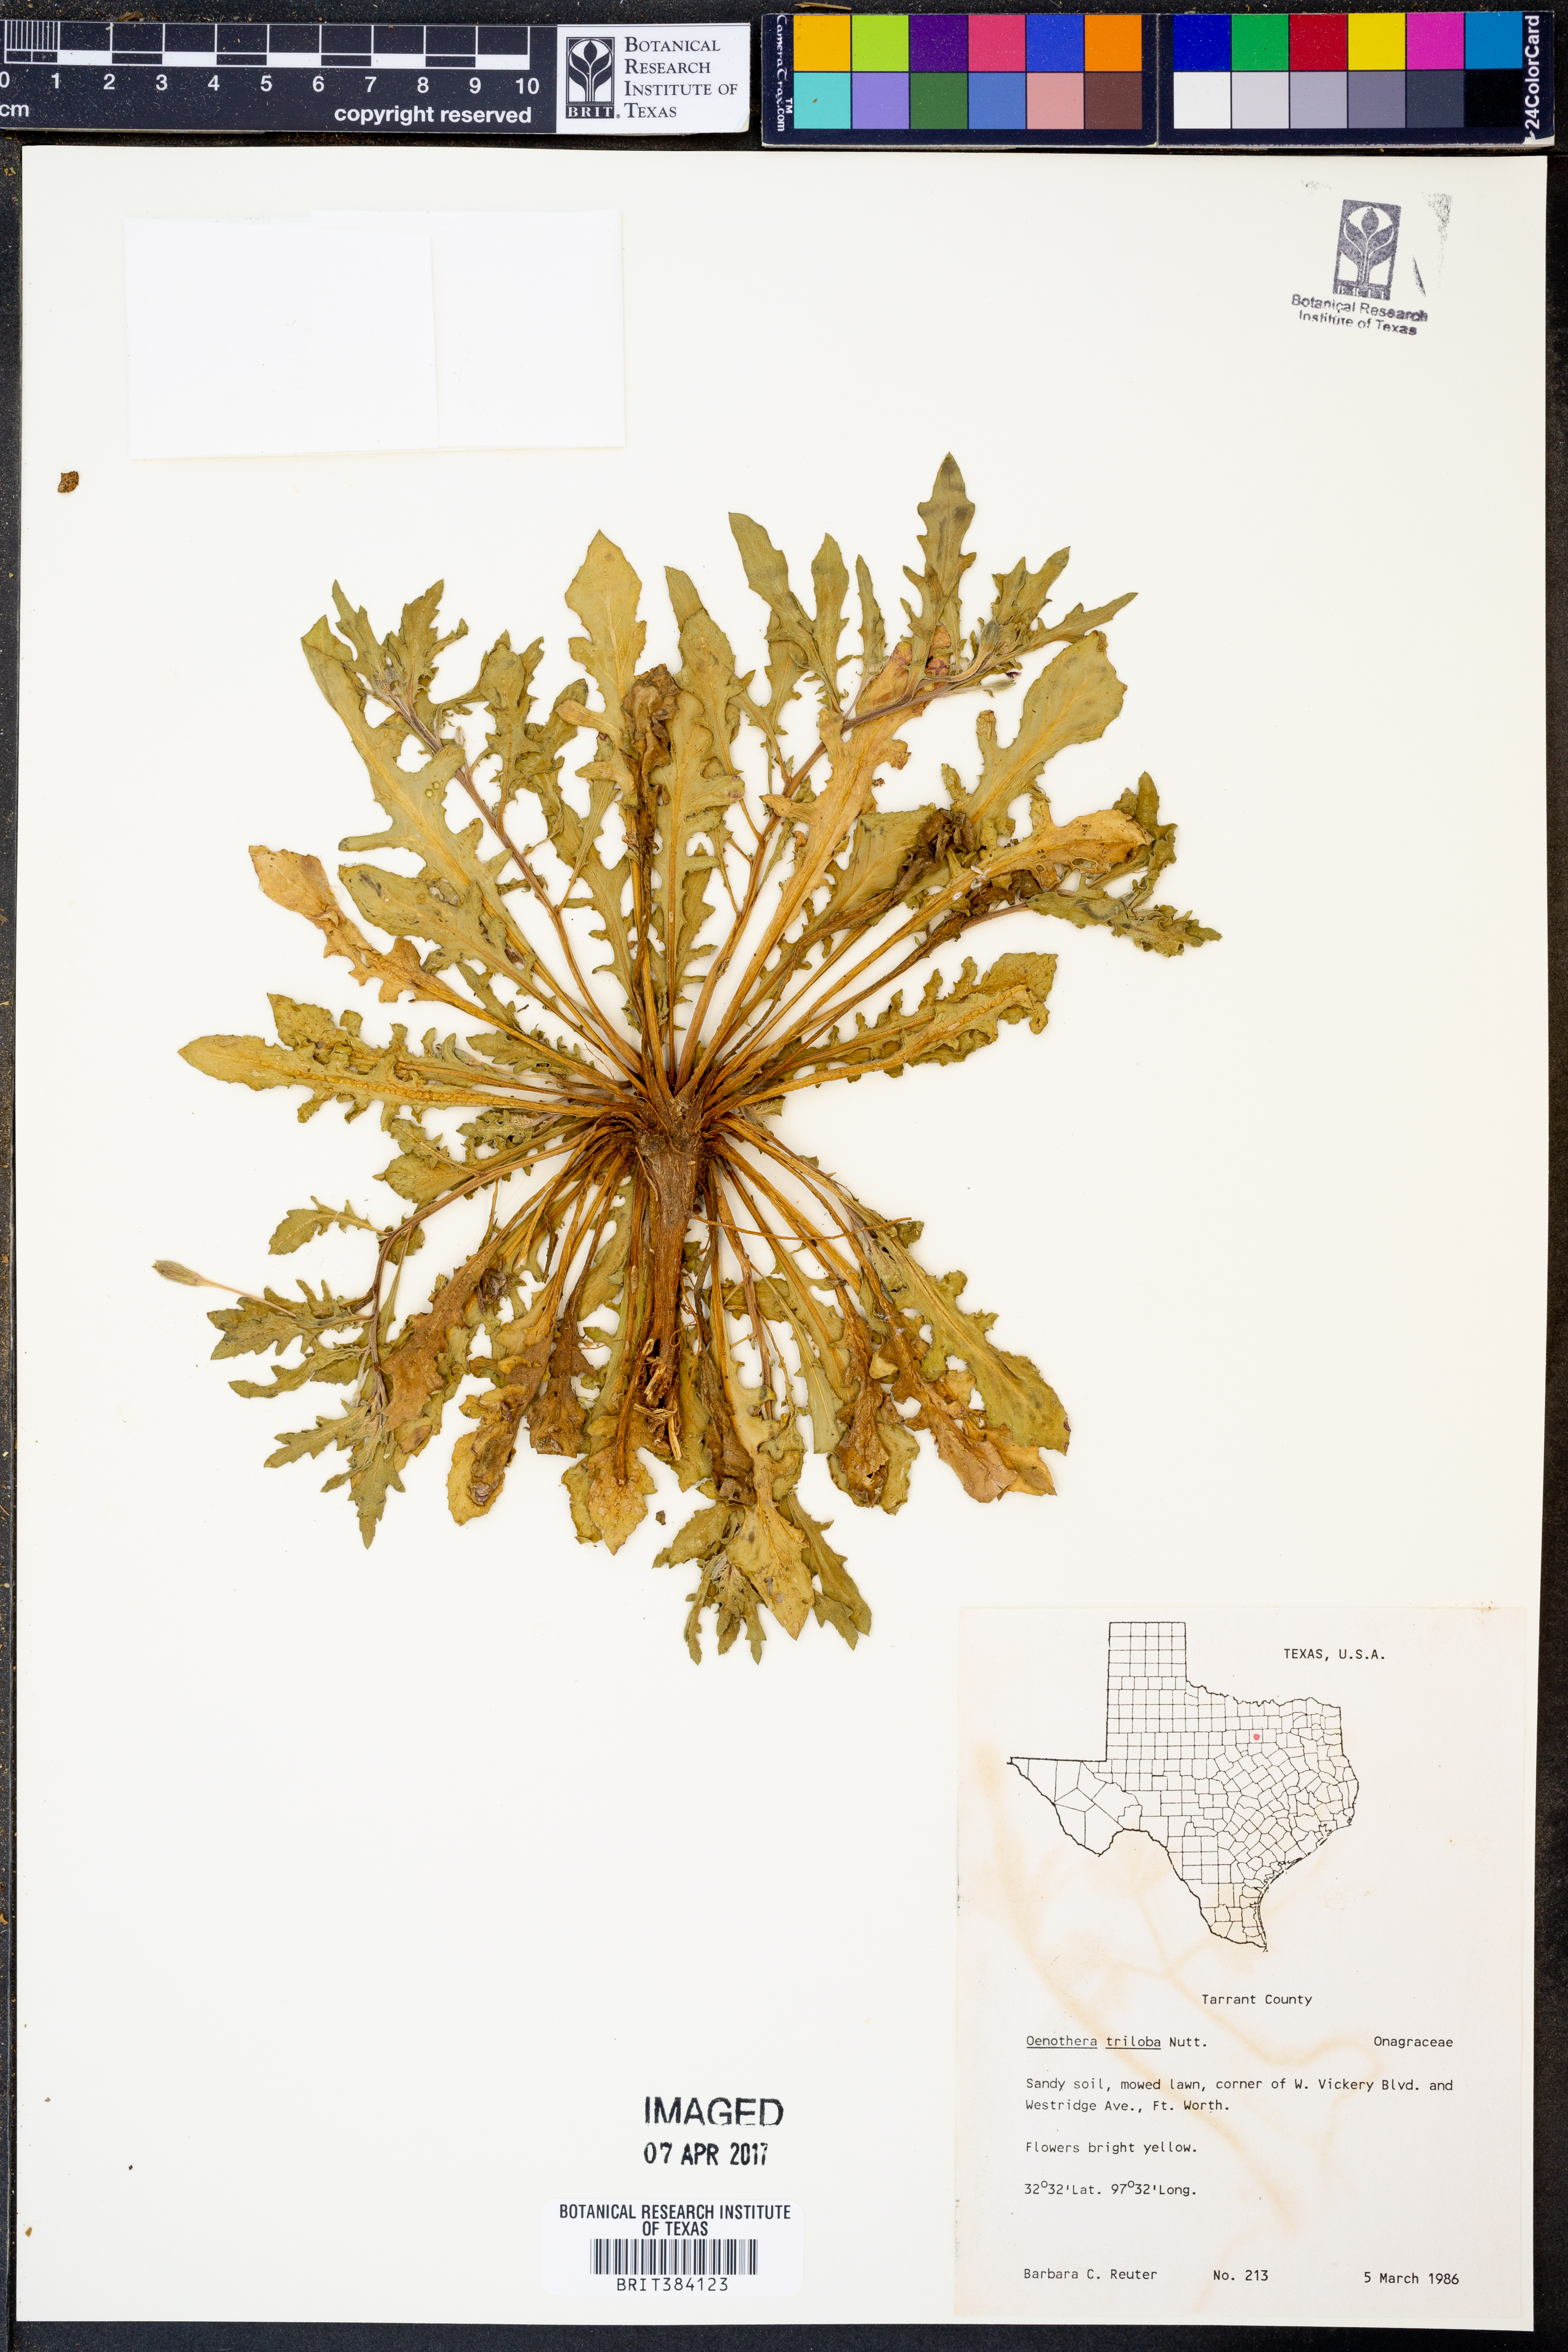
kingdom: Plantae
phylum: Tracheophyta
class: Magnoliopsida
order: Myrtales
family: Onagraceae
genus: Oenothera
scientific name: Oenothera triloba
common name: Sessile evening-primrose
